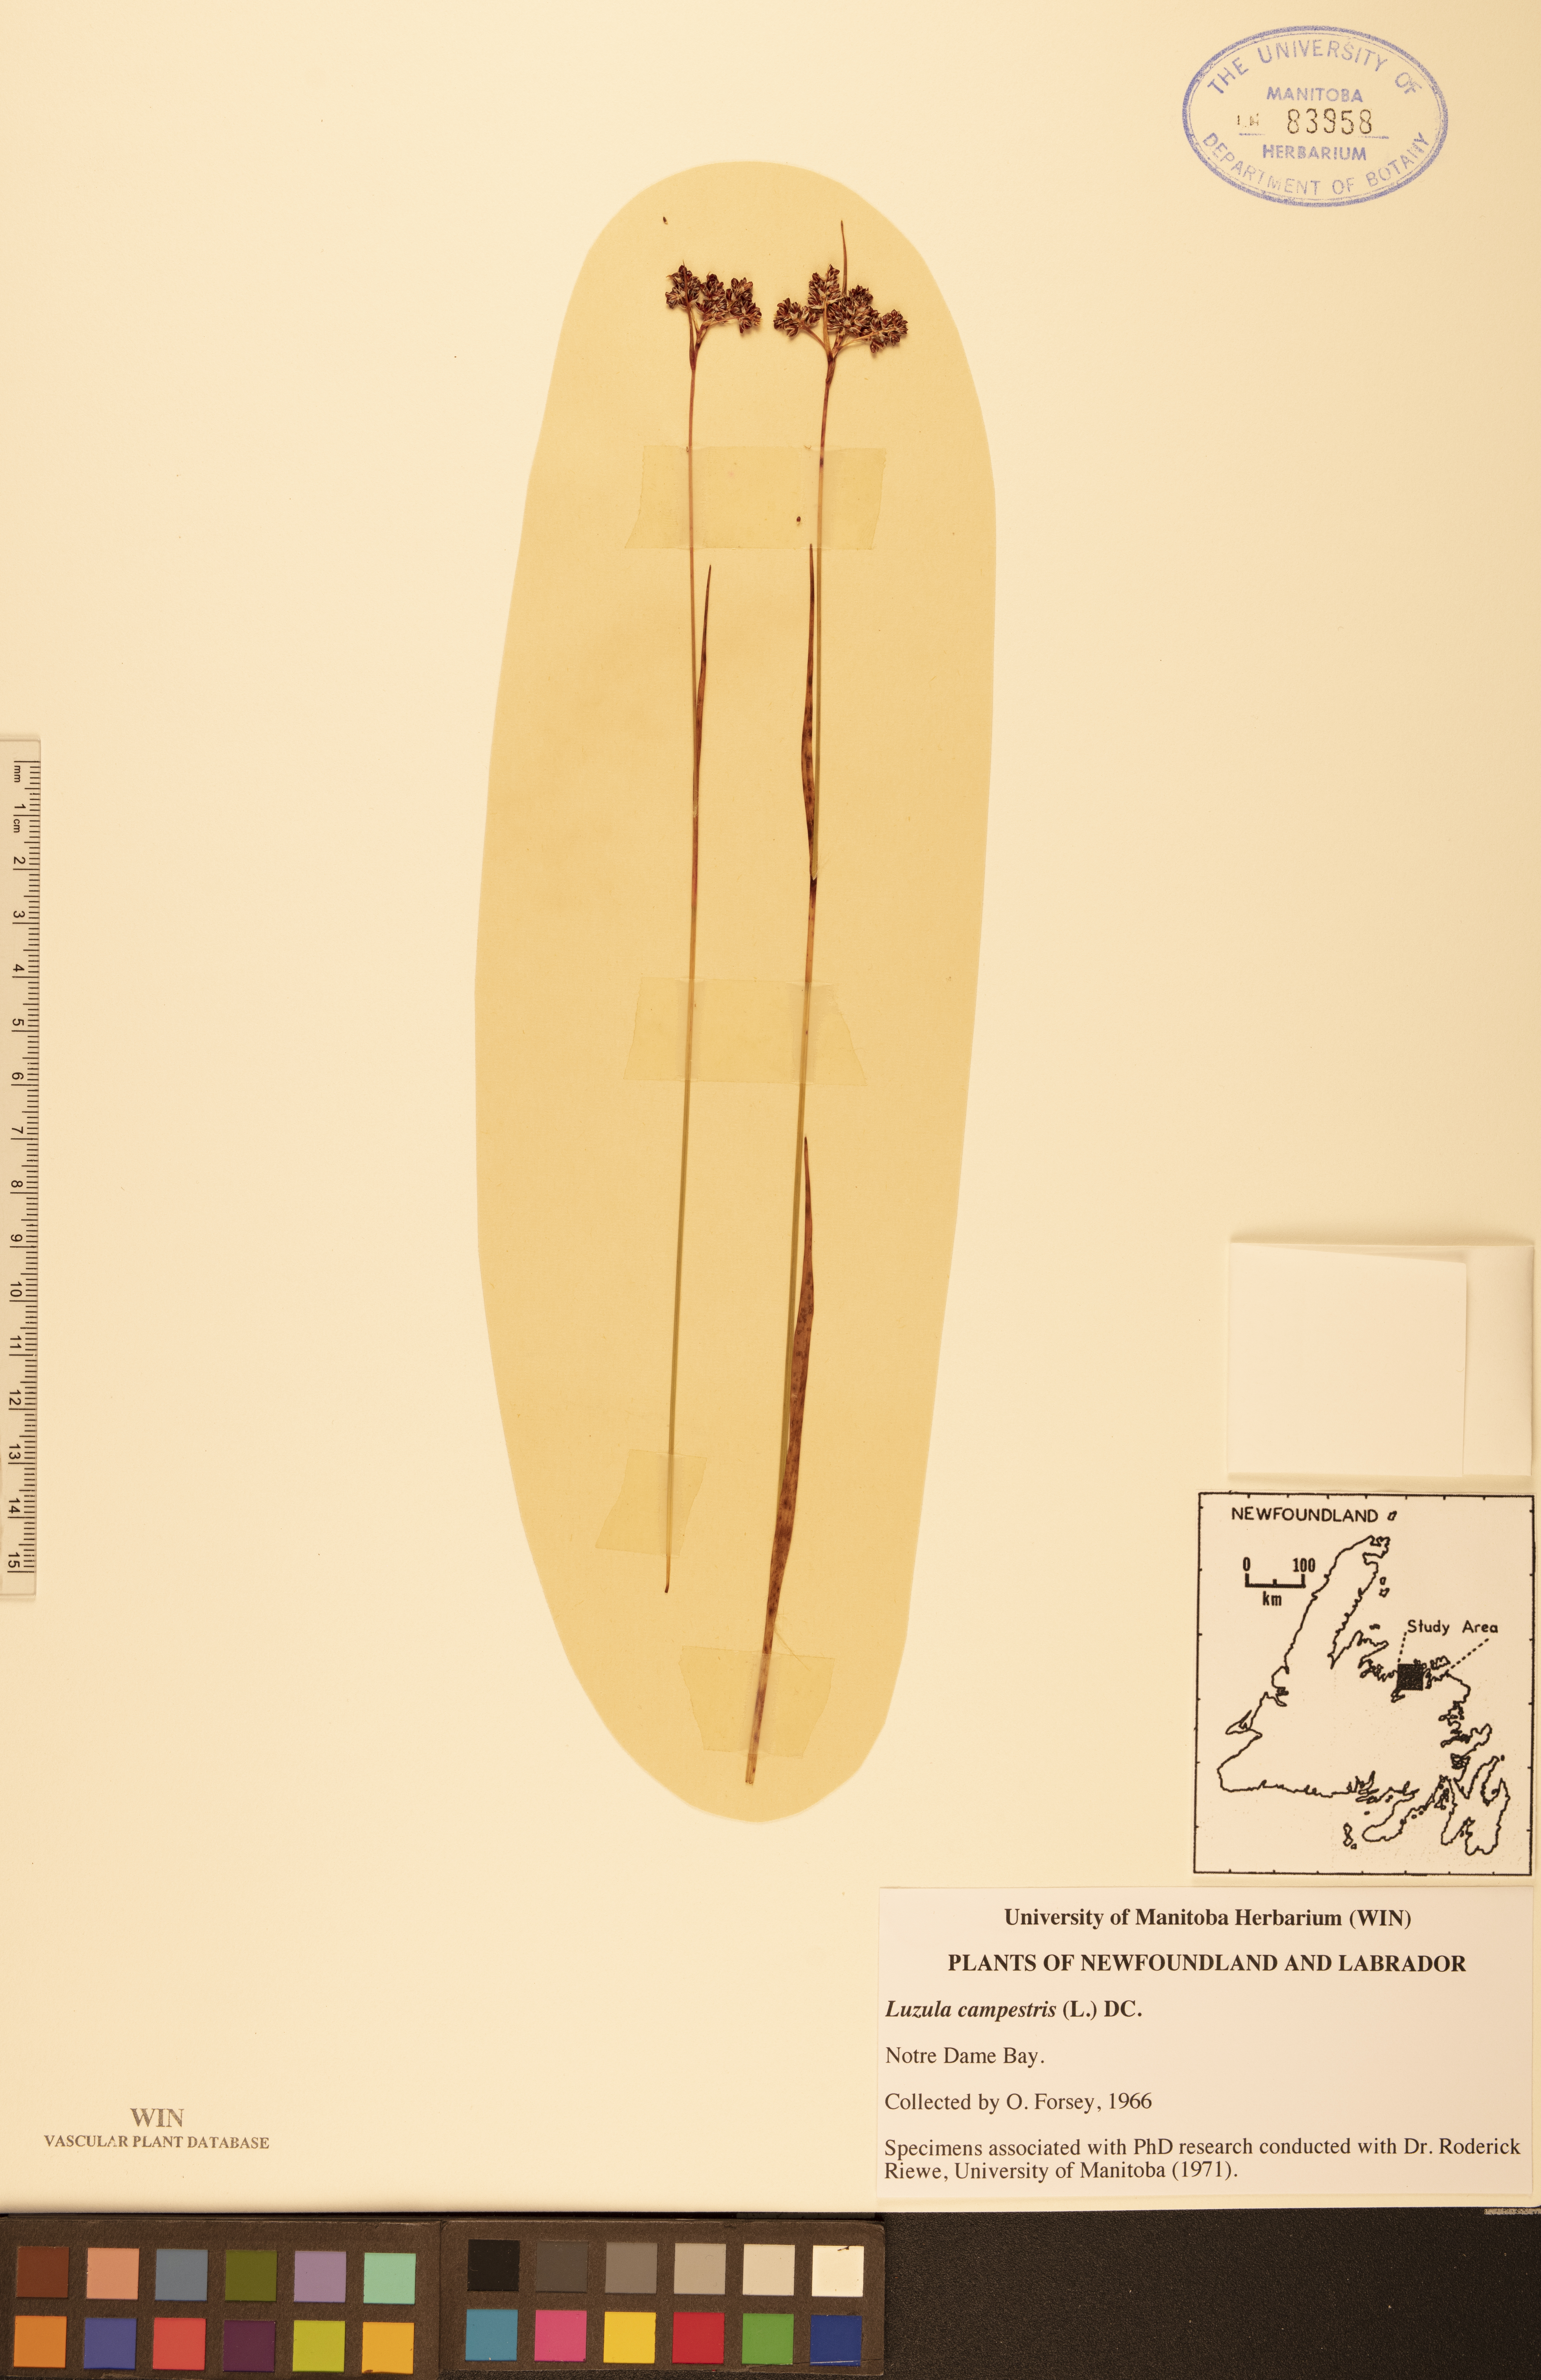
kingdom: Plantae
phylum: Tracheophyta
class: Liliopsida
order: Poales
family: Juncaceae
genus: Luzula
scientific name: Luzula campestris
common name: Field wood-rush
